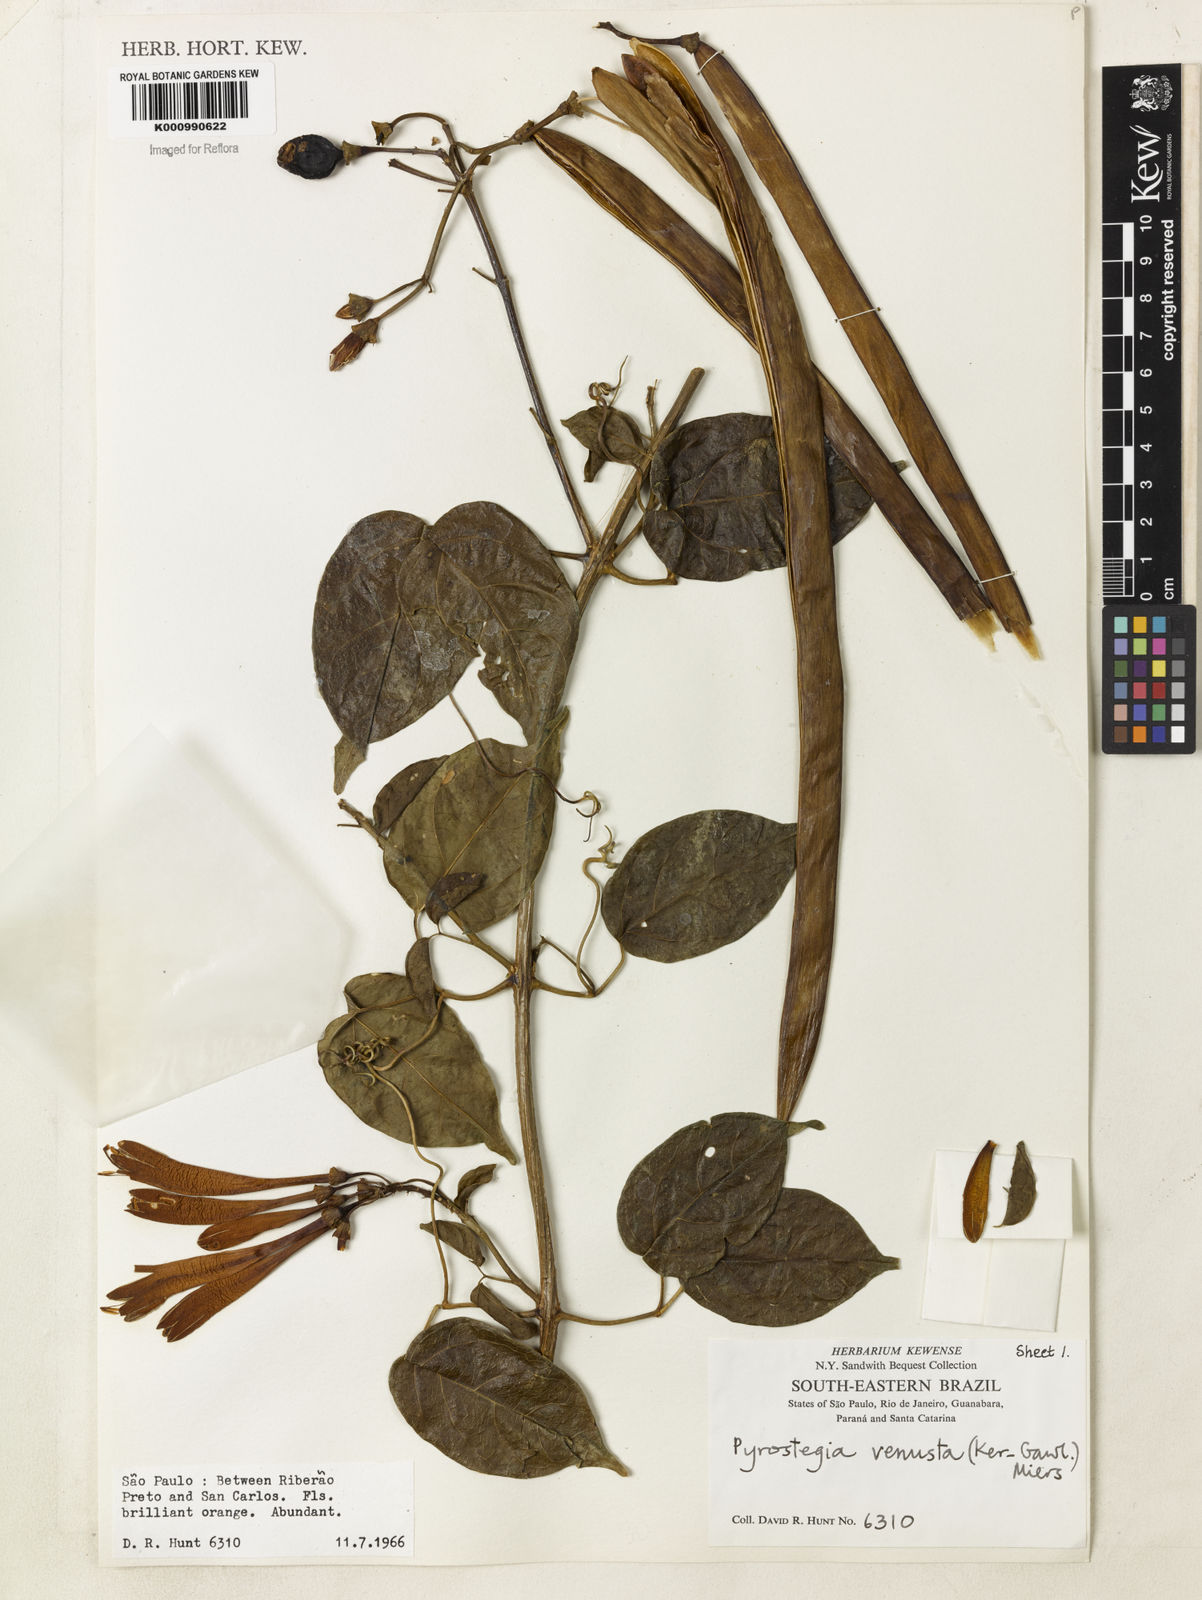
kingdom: Plantae
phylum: Tracheophyta
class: Magnoliopsida
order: Lamiales
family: Bignoniaceae
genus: Pyrostegia
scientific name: Pyrostegia venusta
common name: Flamevine
